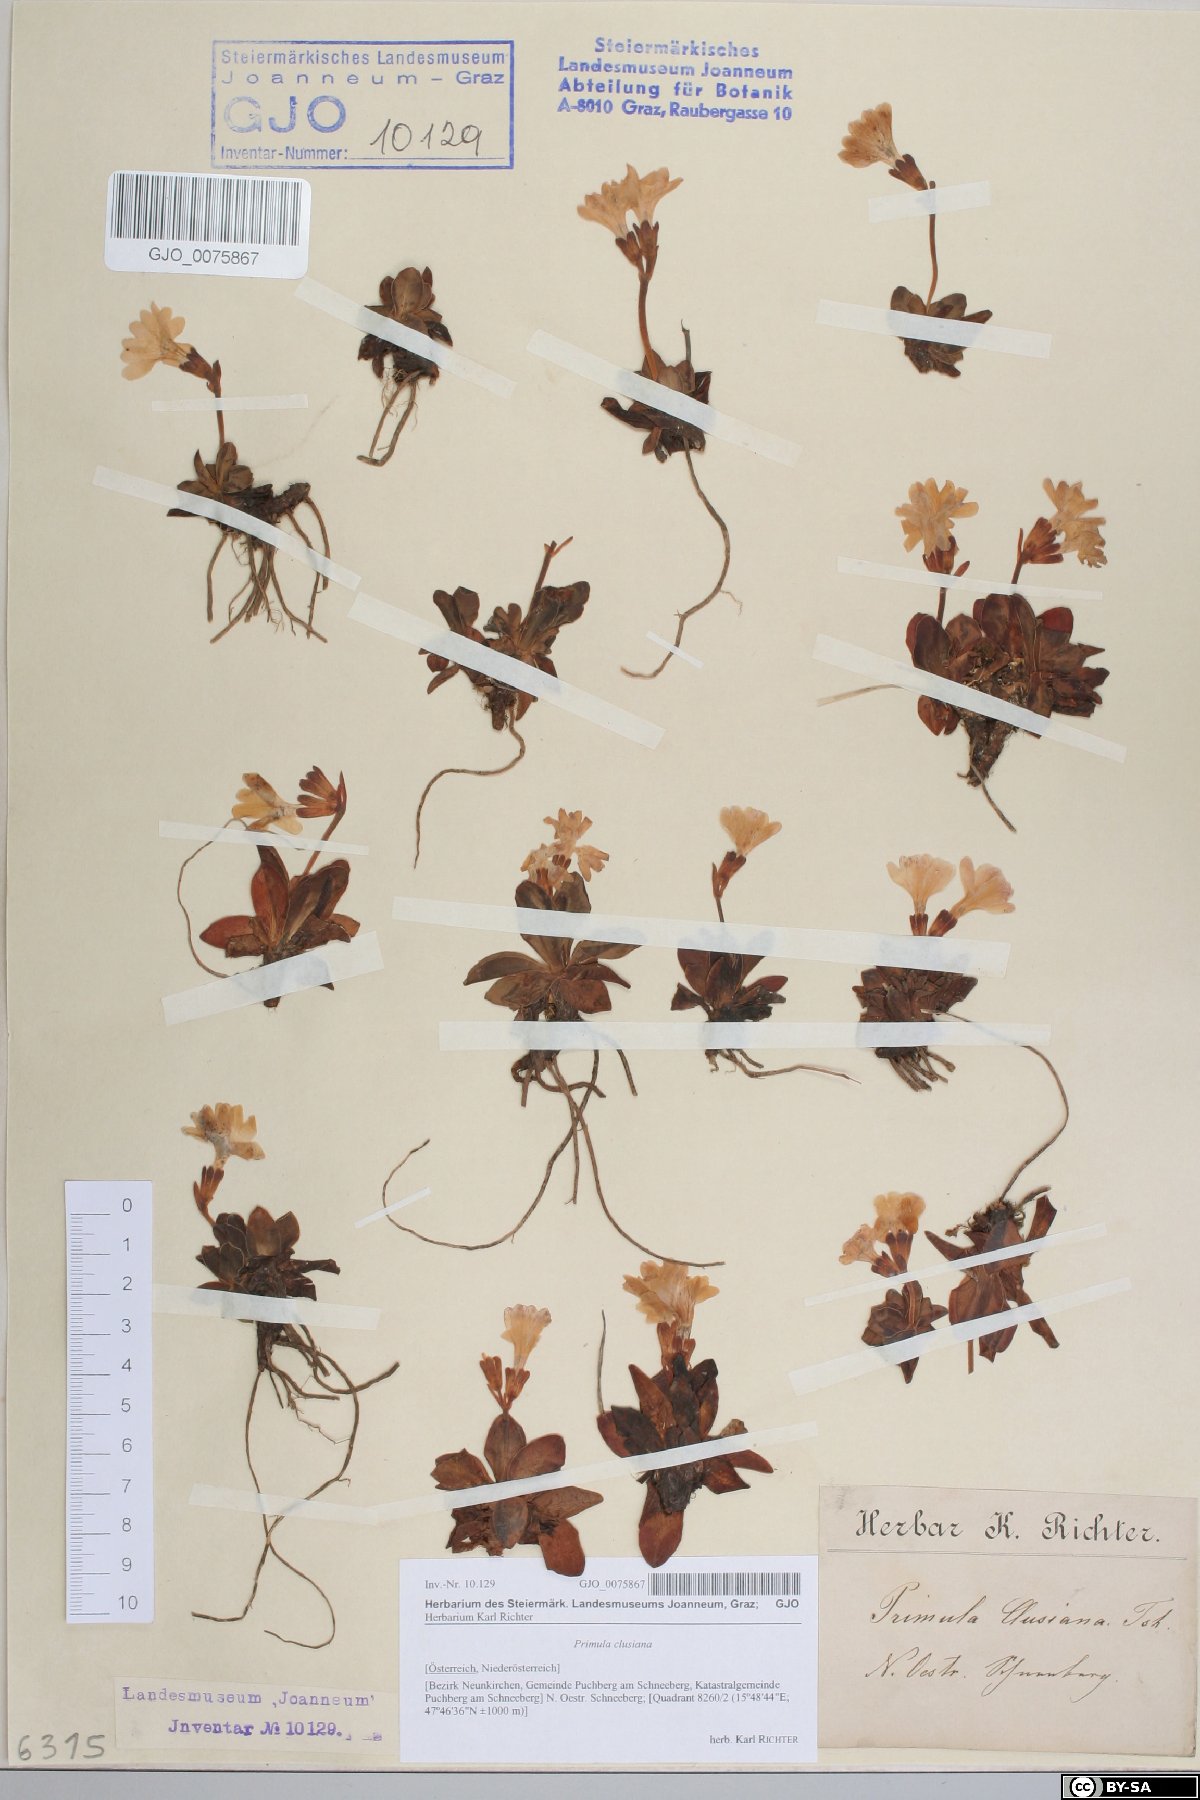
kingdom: Plantae
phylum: Tracheophyta
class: Magnoliopsida
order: Ericales
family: Primulaceae
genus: Primula
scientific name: Primula clusiana
